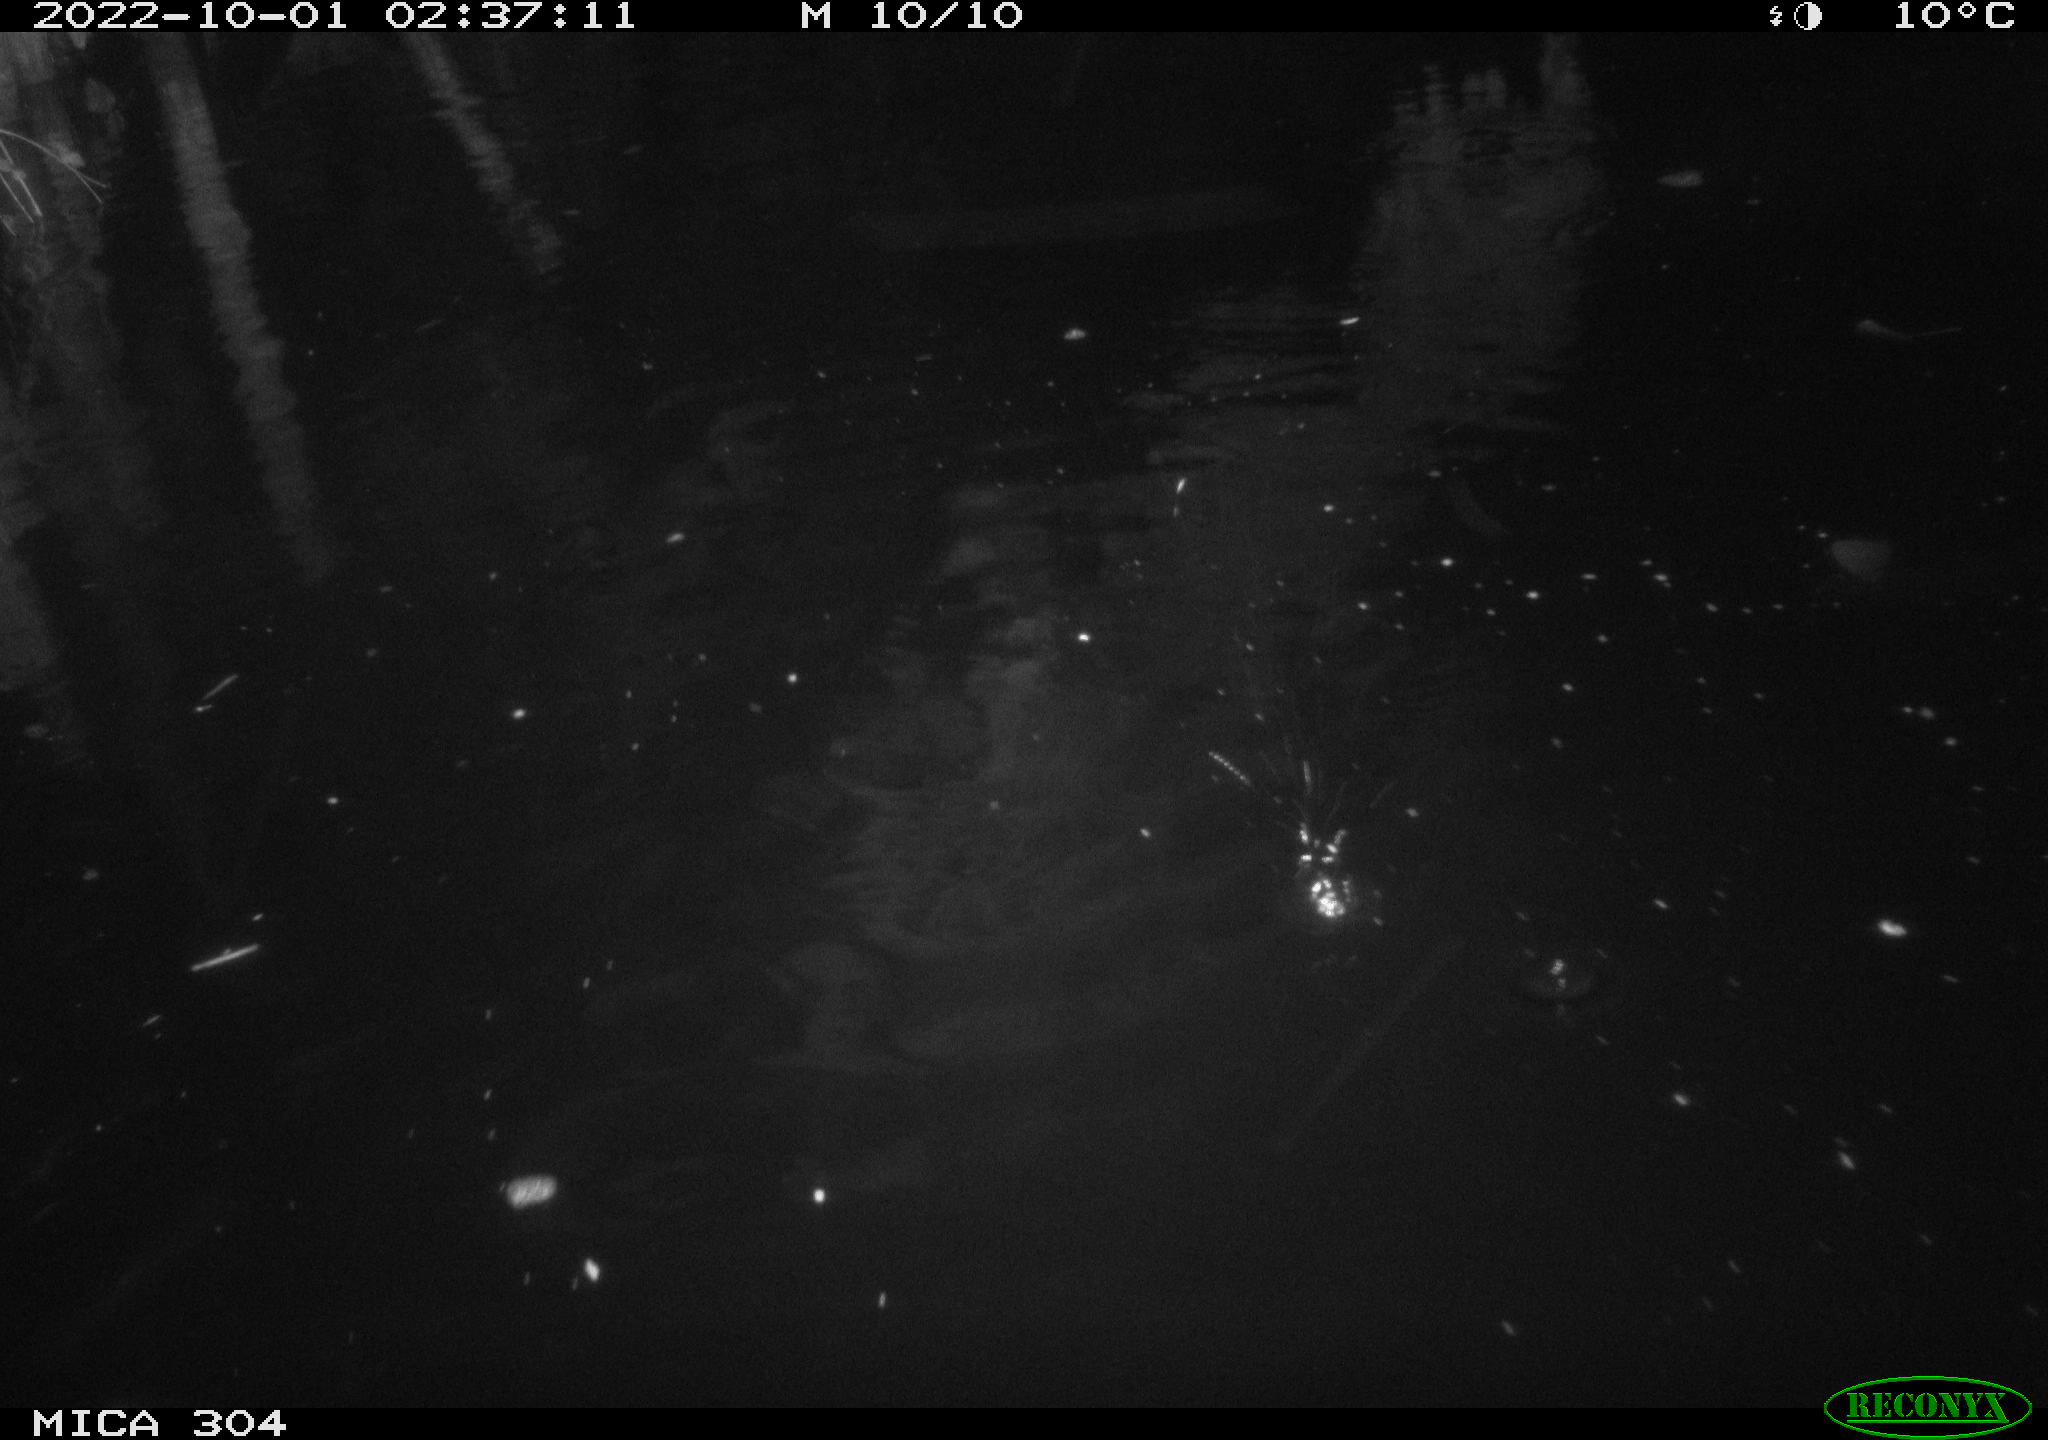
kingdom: Animalia
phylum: Chordata
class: Mammalia
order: Rodentia
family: Muridae
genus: Rattus
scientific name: Rattus norvegicus
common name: Brown rat
